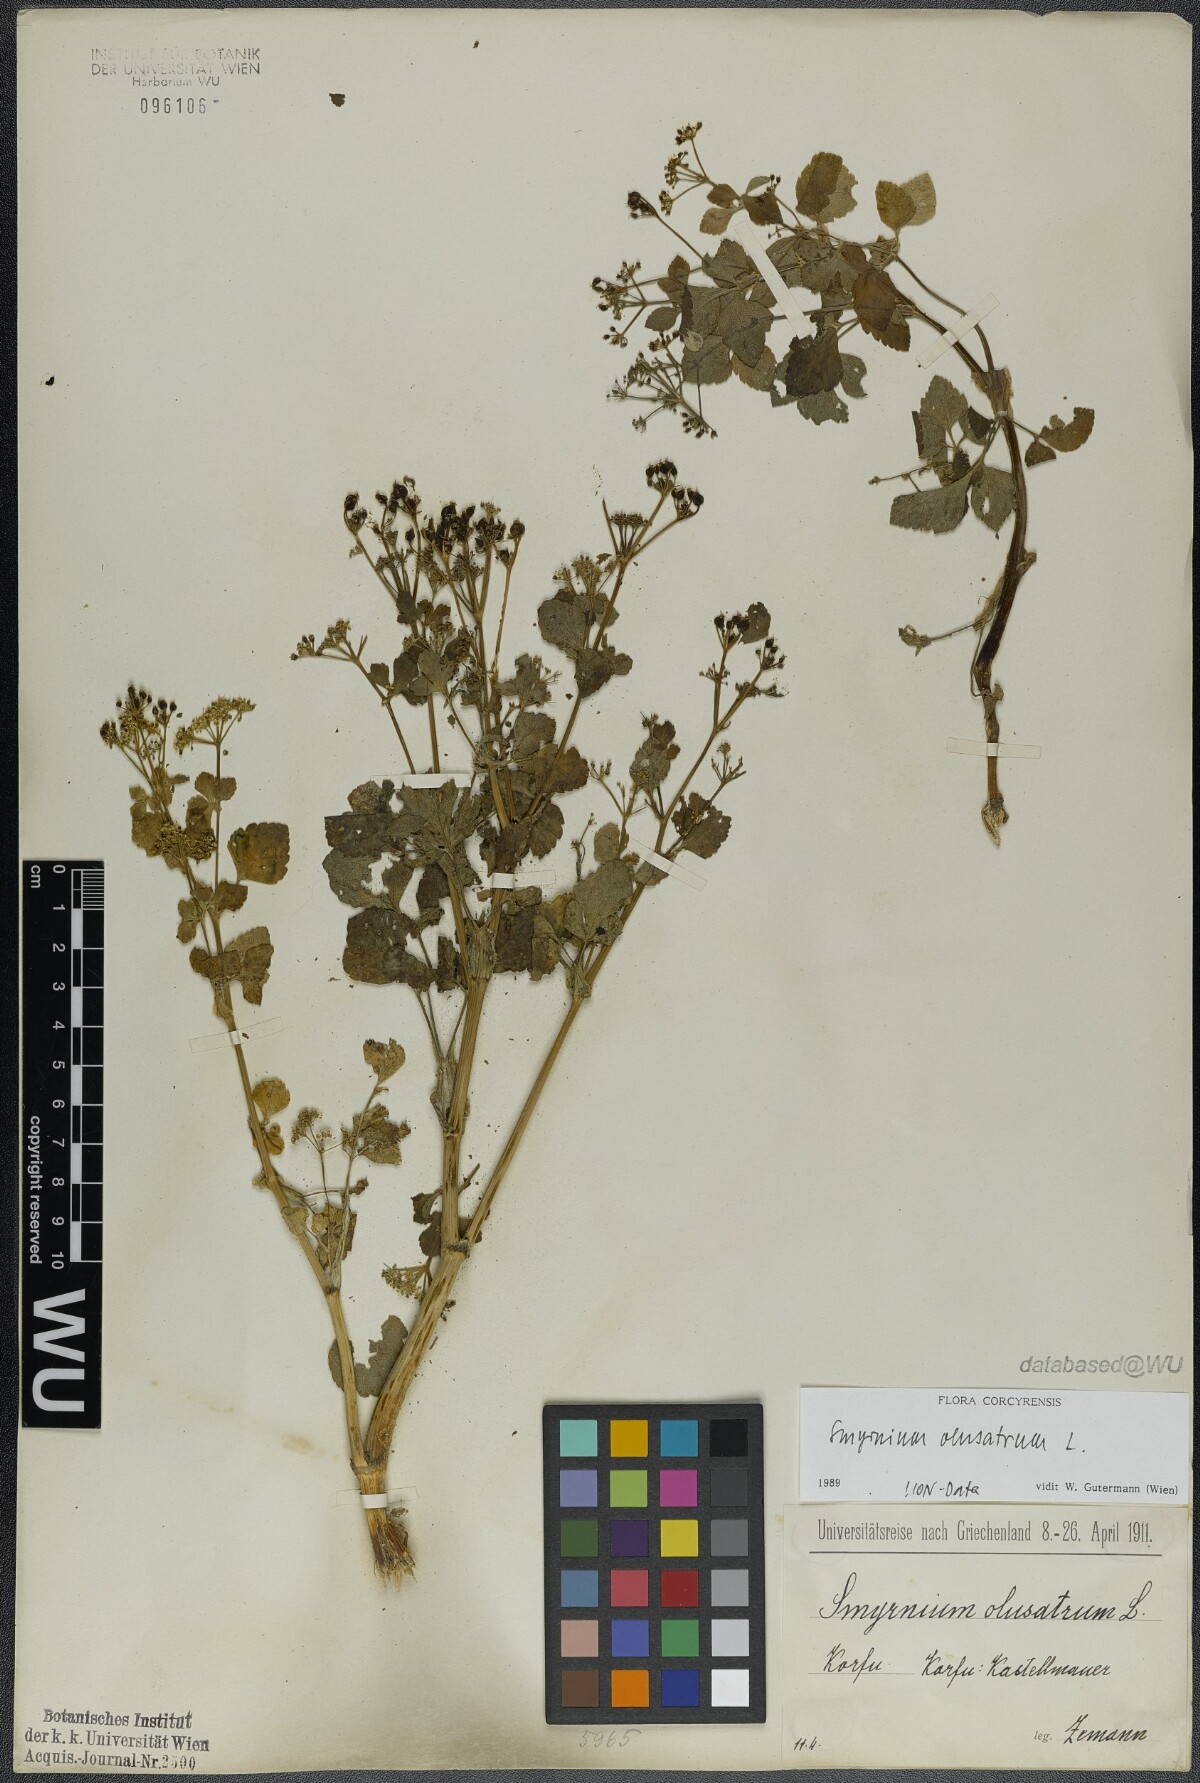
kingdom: Plantae
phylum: Tracheophyta
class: Magnoliopsida
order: Apiales
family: Apiaceae
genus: Smyrnium
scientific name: Smyrnium olusatrum
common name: Alexanders
